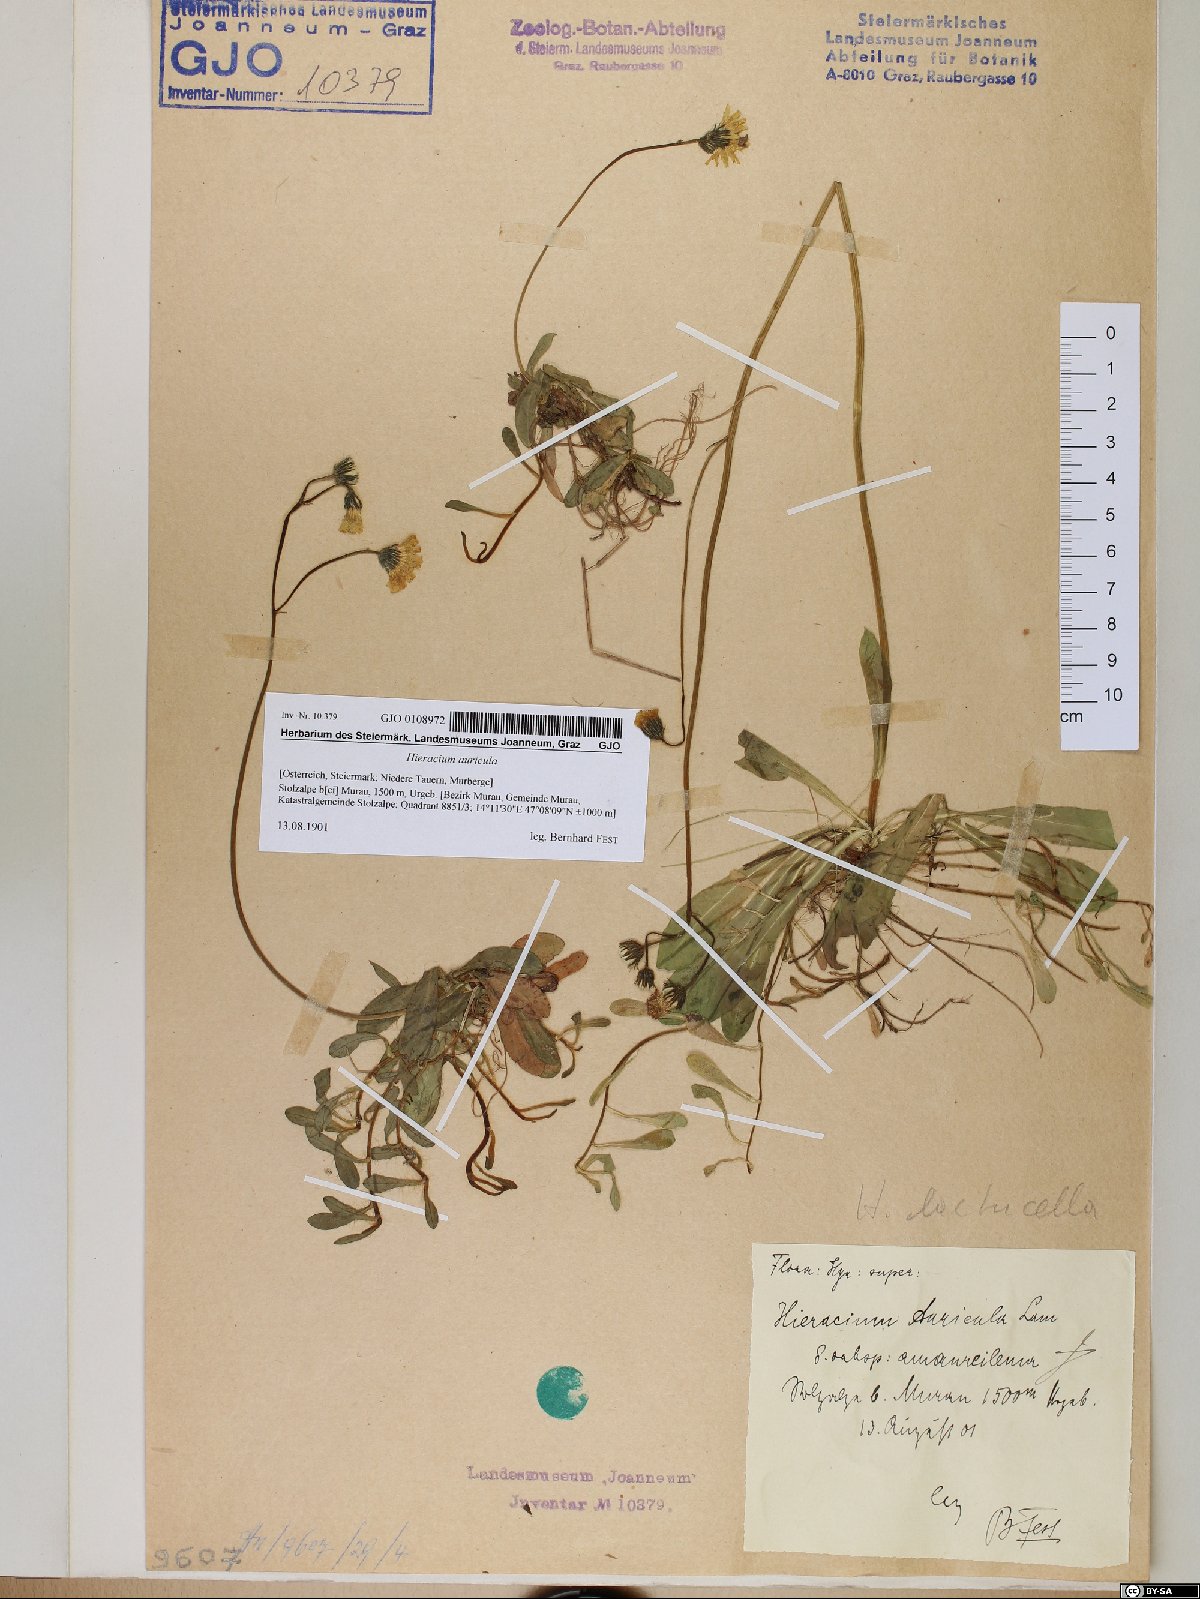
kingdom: Plantae
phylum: Tracheophyta
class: Magnoliopsida
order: Asterales
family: Asteraceae
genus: Hieracium
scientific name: Hieracium auricula
